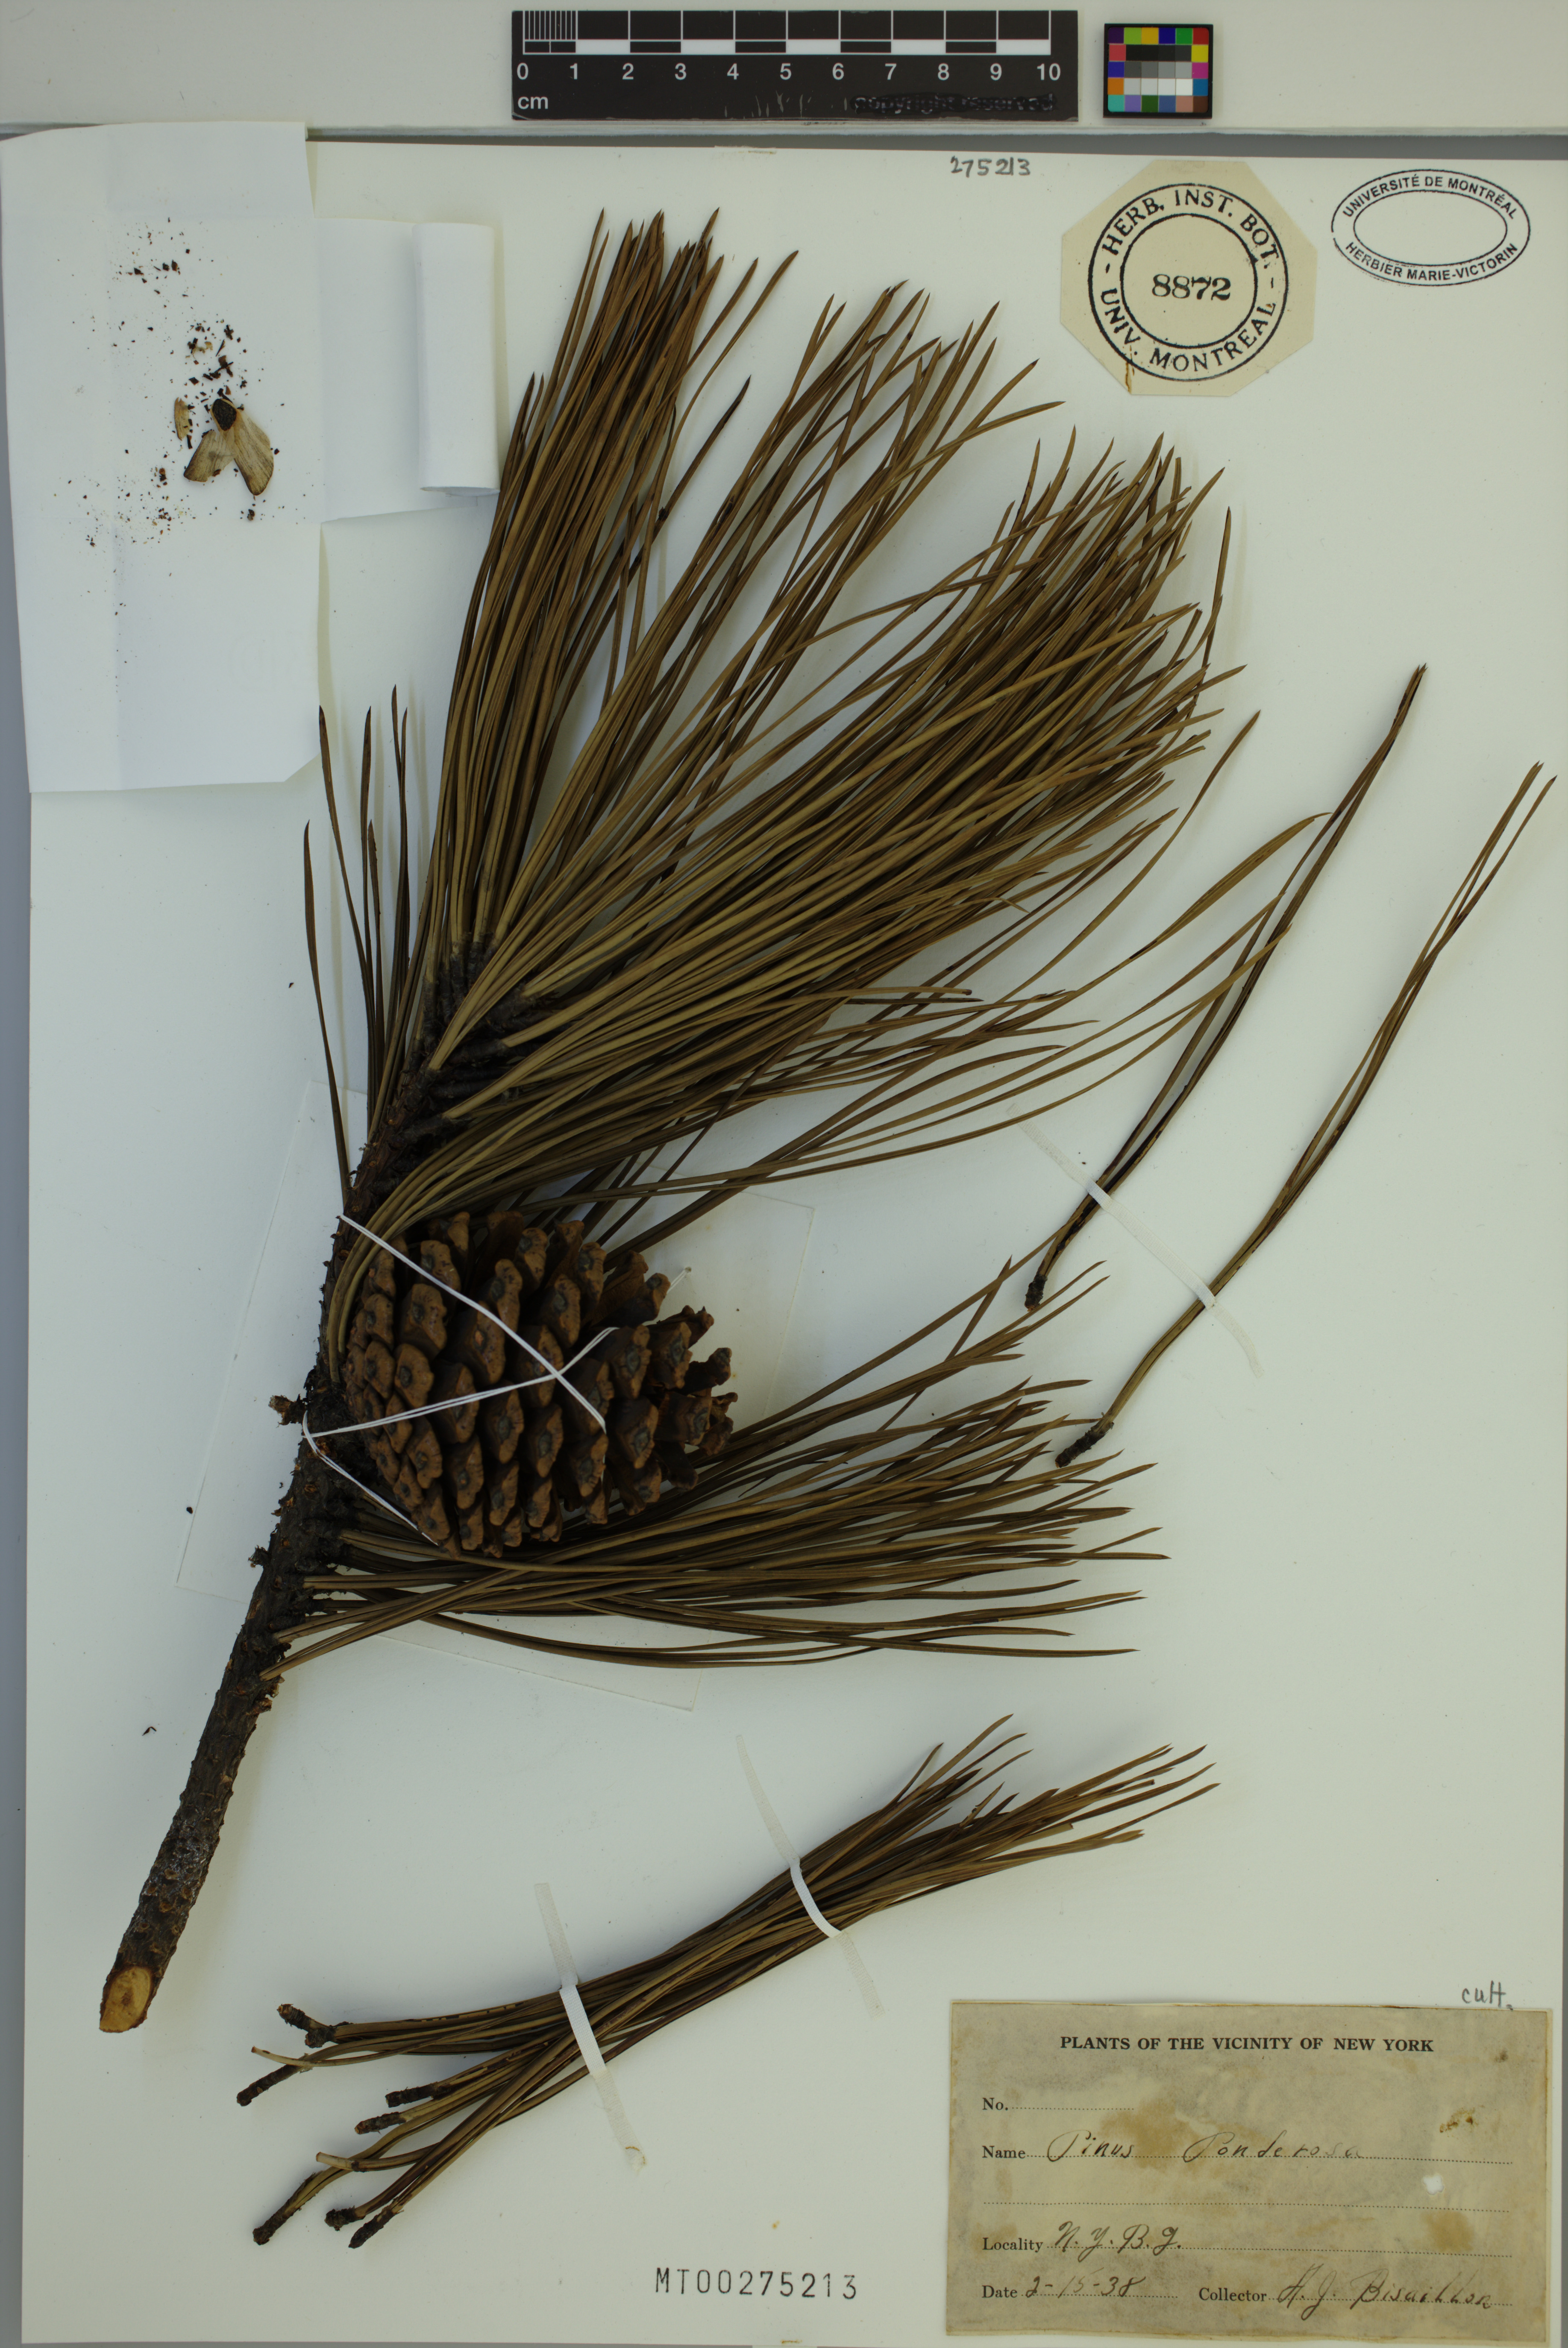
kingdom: Plantae
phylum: Tracheophyta
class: Pinopsida
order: Pinales
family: Pinaceae
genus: Pinus
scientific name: Pinus ponderosa
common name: Western yellow-pine
